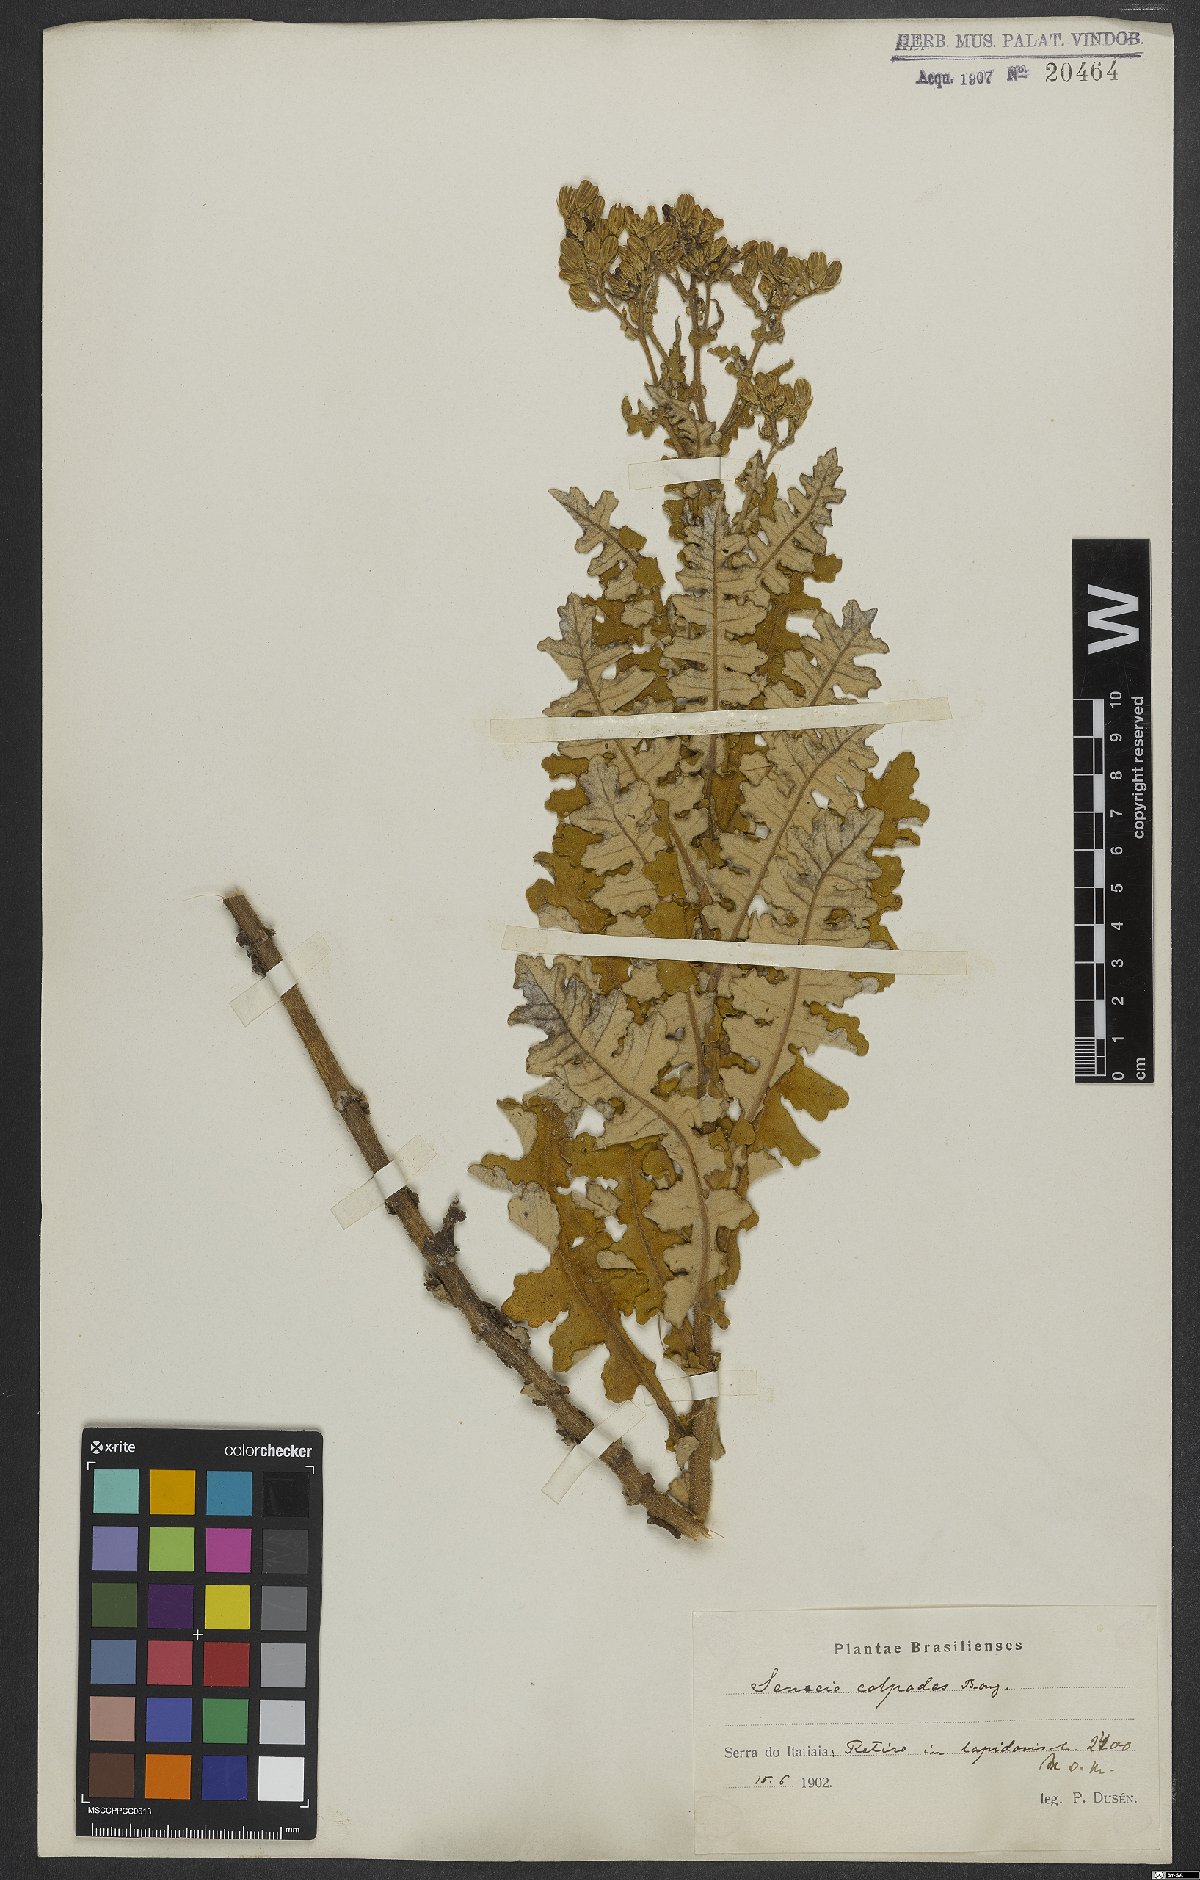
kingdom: Plantae
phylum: Tracheophyta
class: Magnoliopsida
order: Asterales
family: Asteraceae
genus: Senecio
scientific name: Senecio colpodes
